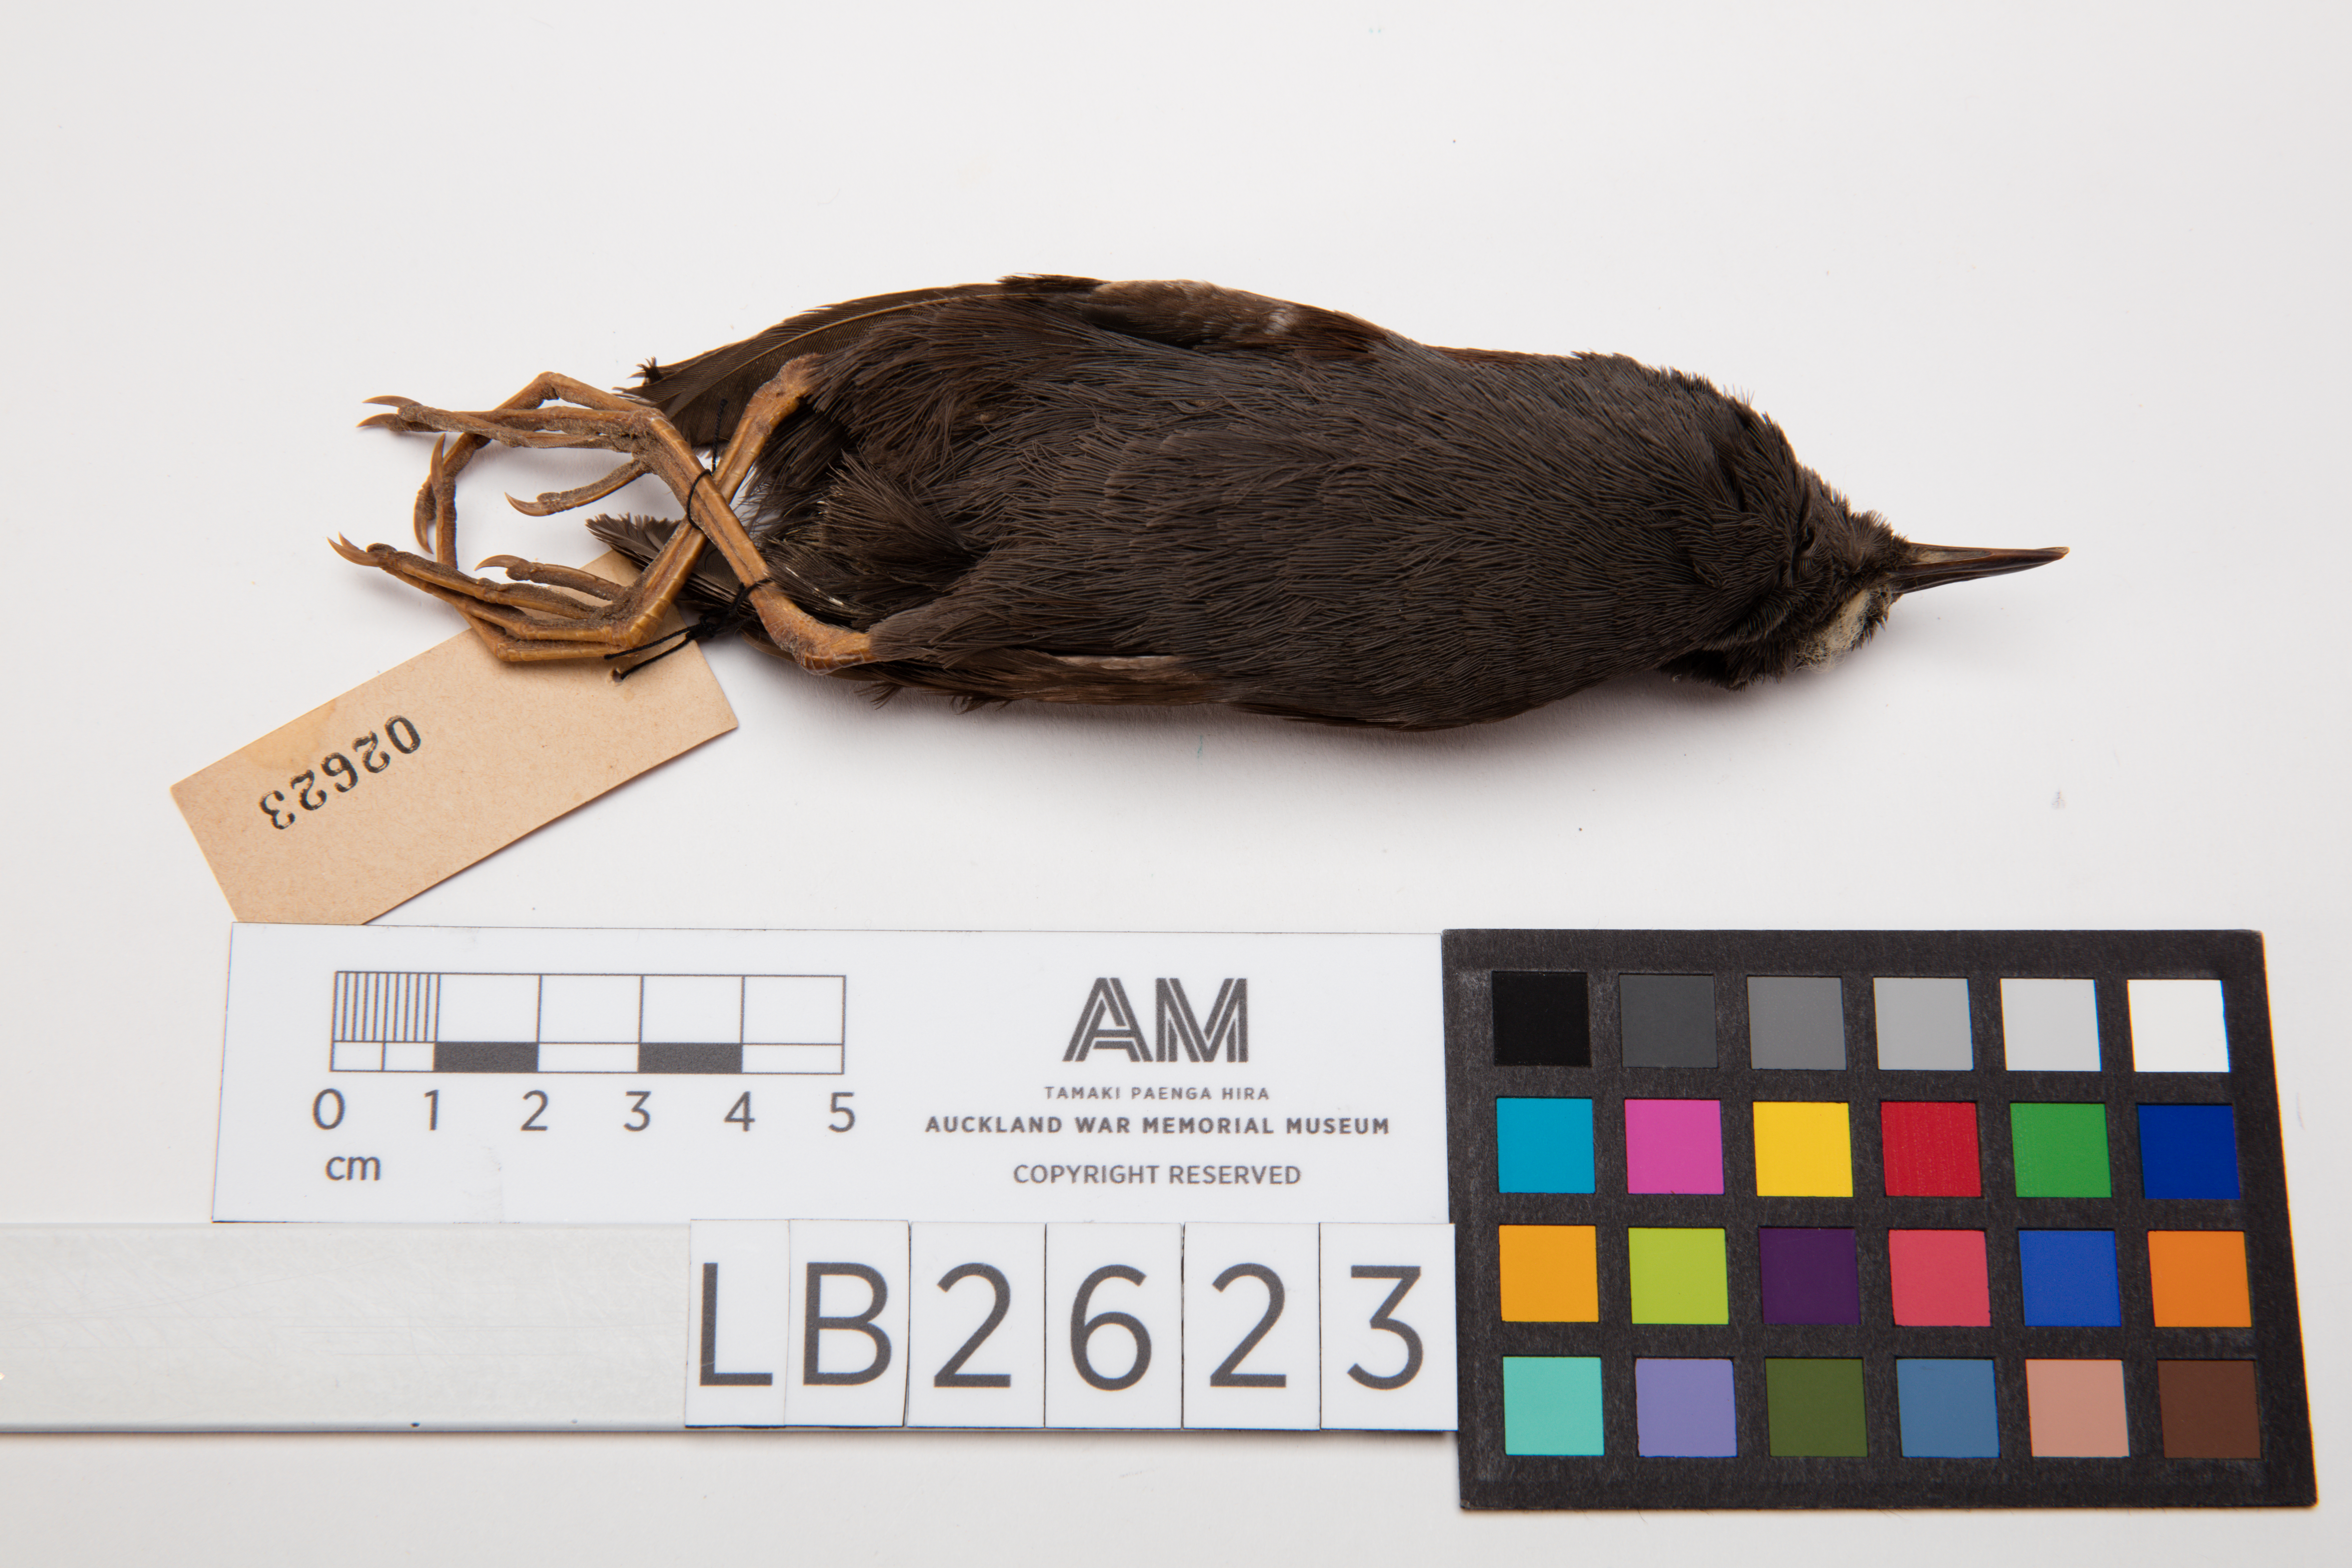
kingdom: Animalia
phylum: Chordata
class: Aves
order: Gruiformes
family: Rallidae
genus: Porzana
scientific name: Porzana tabuensis
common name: Spotless crake
